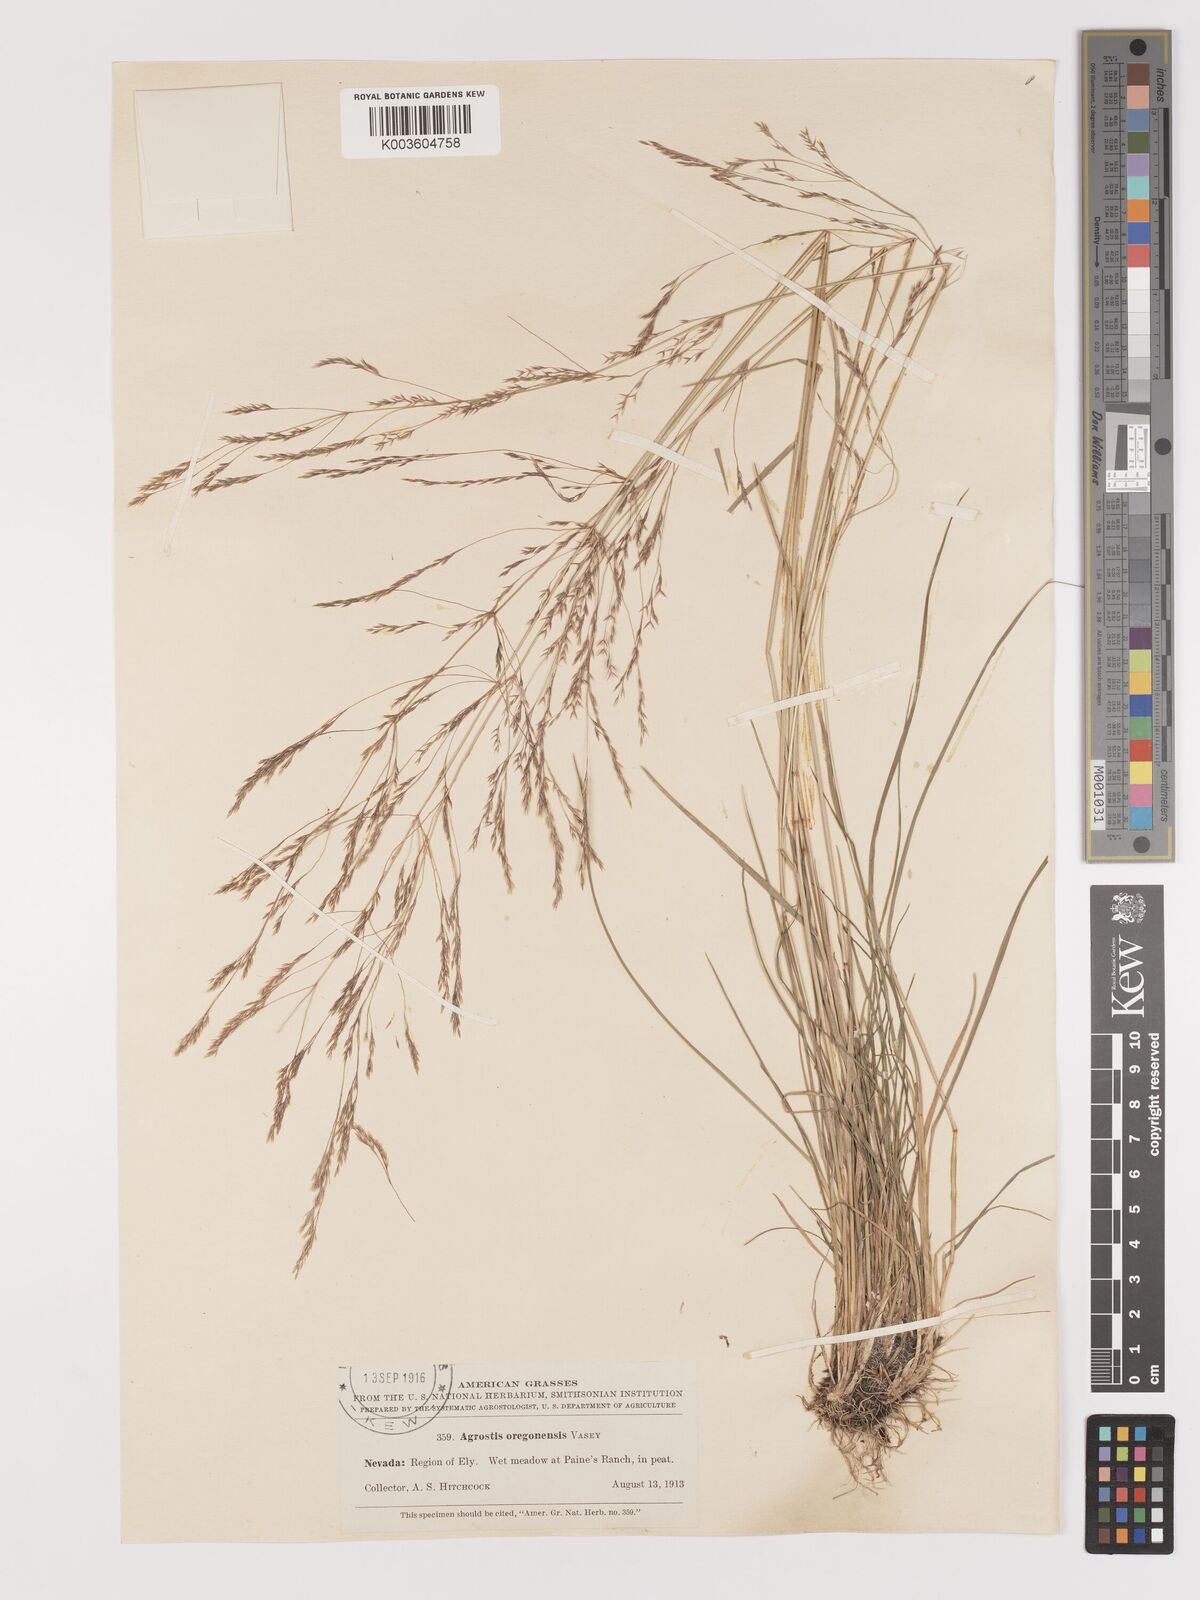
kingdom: Plantae
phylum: Tracheophyta
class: Liliopsida
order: Poales
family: Poaceae
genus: Agrostis
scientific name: Agrostis oregonensis
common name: Oregon bent
